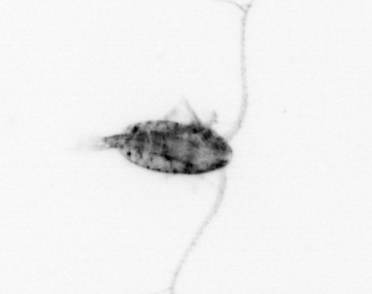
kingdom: Animalia
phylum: Arthropoda
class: Copepoda
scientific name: Copepoda
